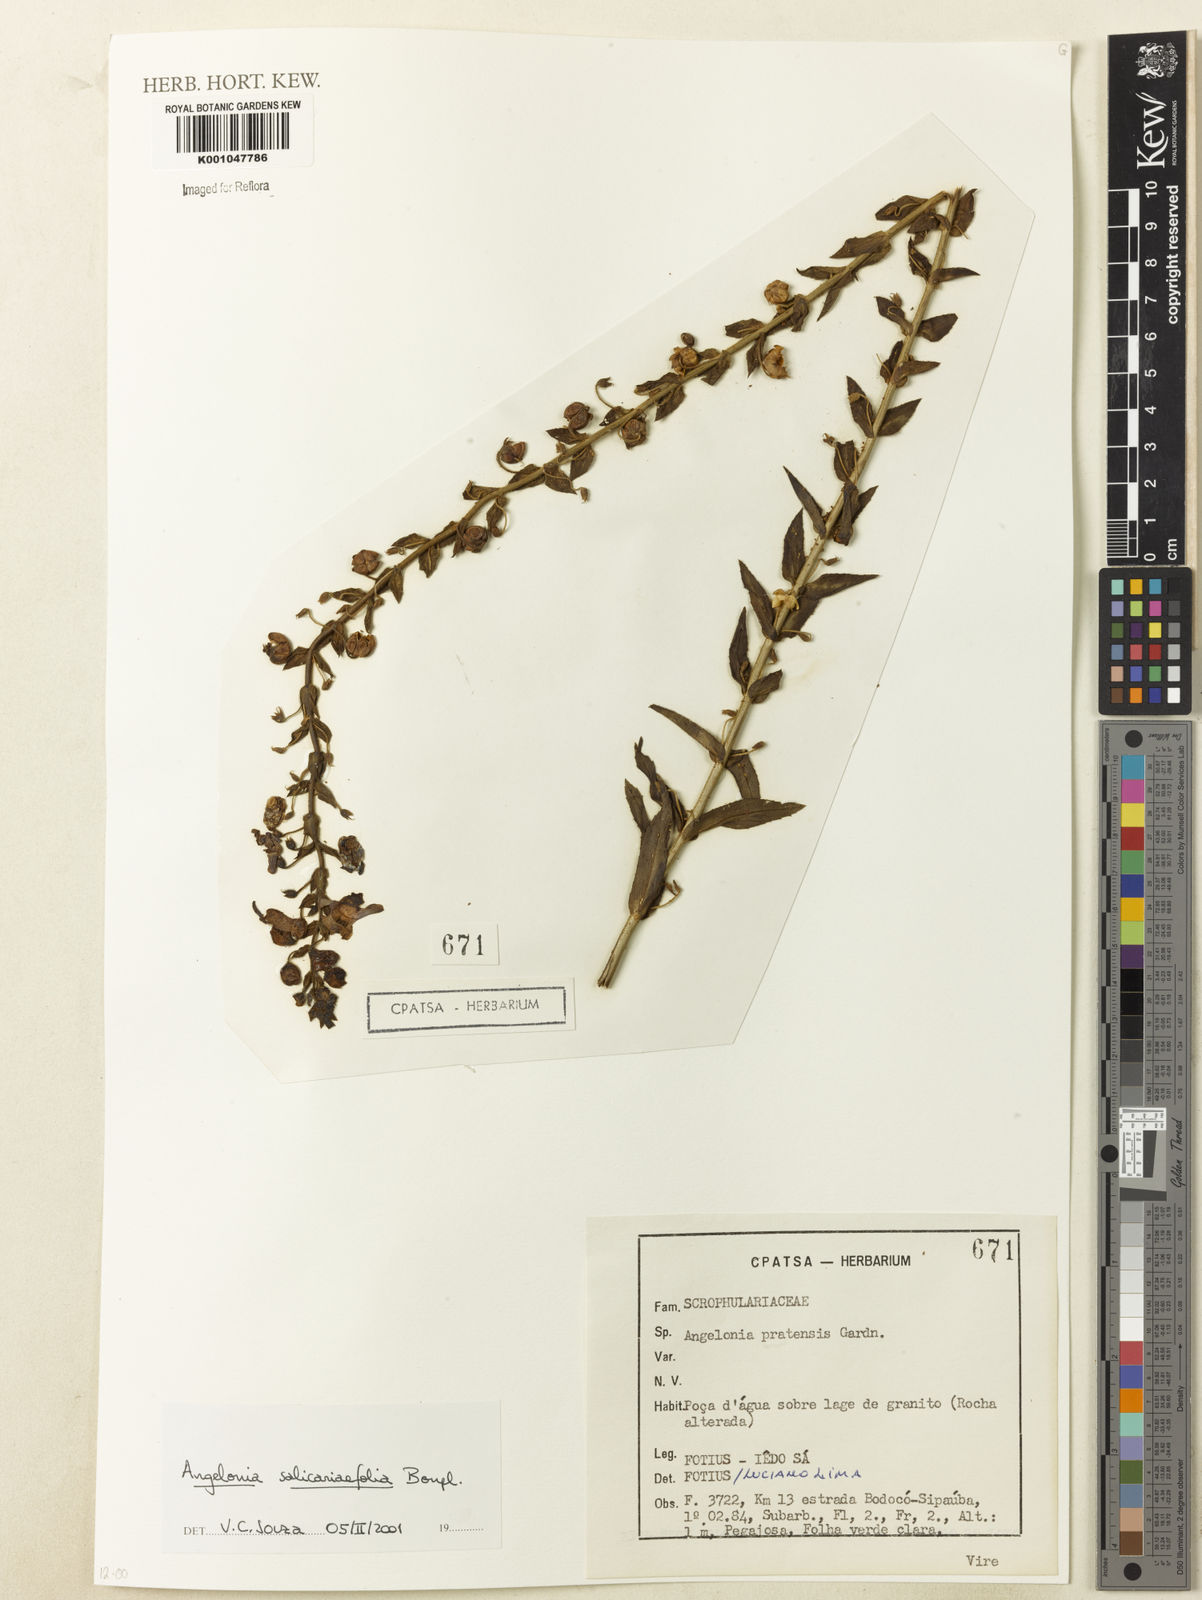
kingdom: Plantae
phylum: Tracheophyta
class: Magnoliopsida
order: Lamiales
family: Plantaginaceae
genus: Angelonia
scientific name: Angelonia salicariifolia
